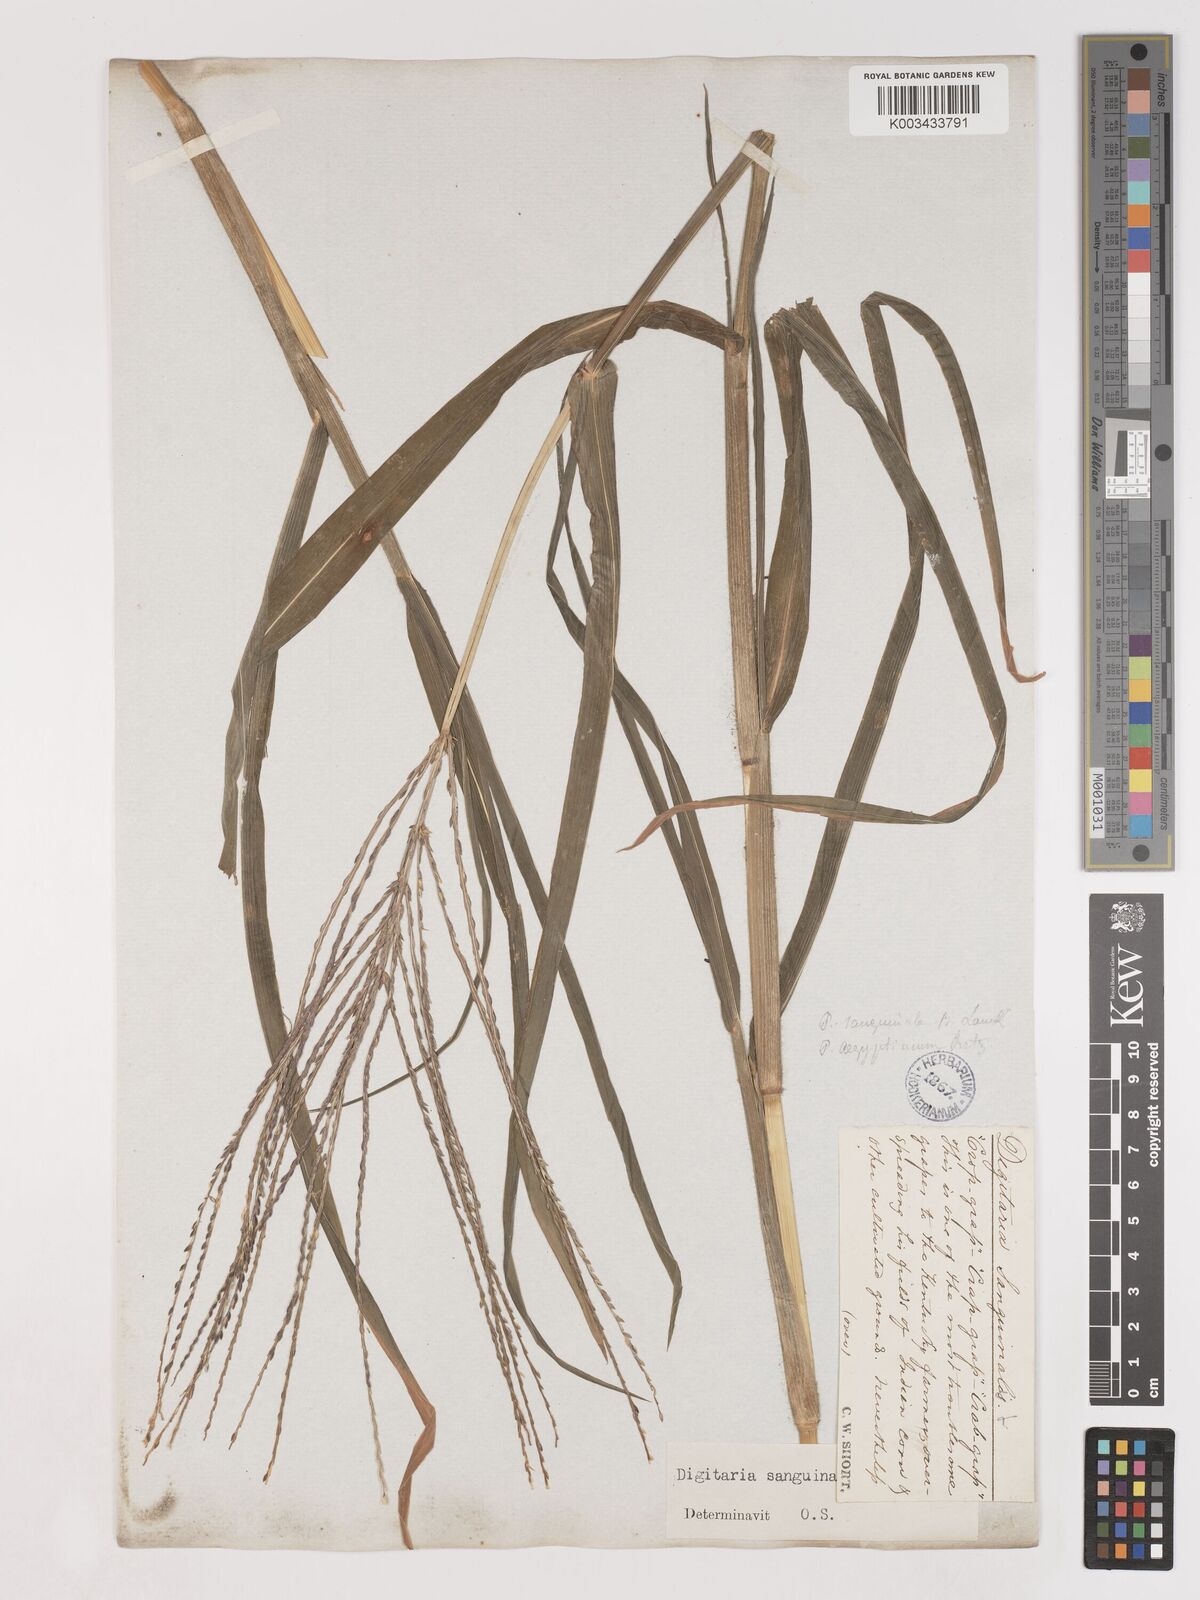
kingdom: Plantae
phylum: Tracheophyta
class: Liliopsida
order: Poales
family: Poaceae
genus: Digitaria
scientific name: Digitaria sanguinalis
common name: Hairy crabgrass
